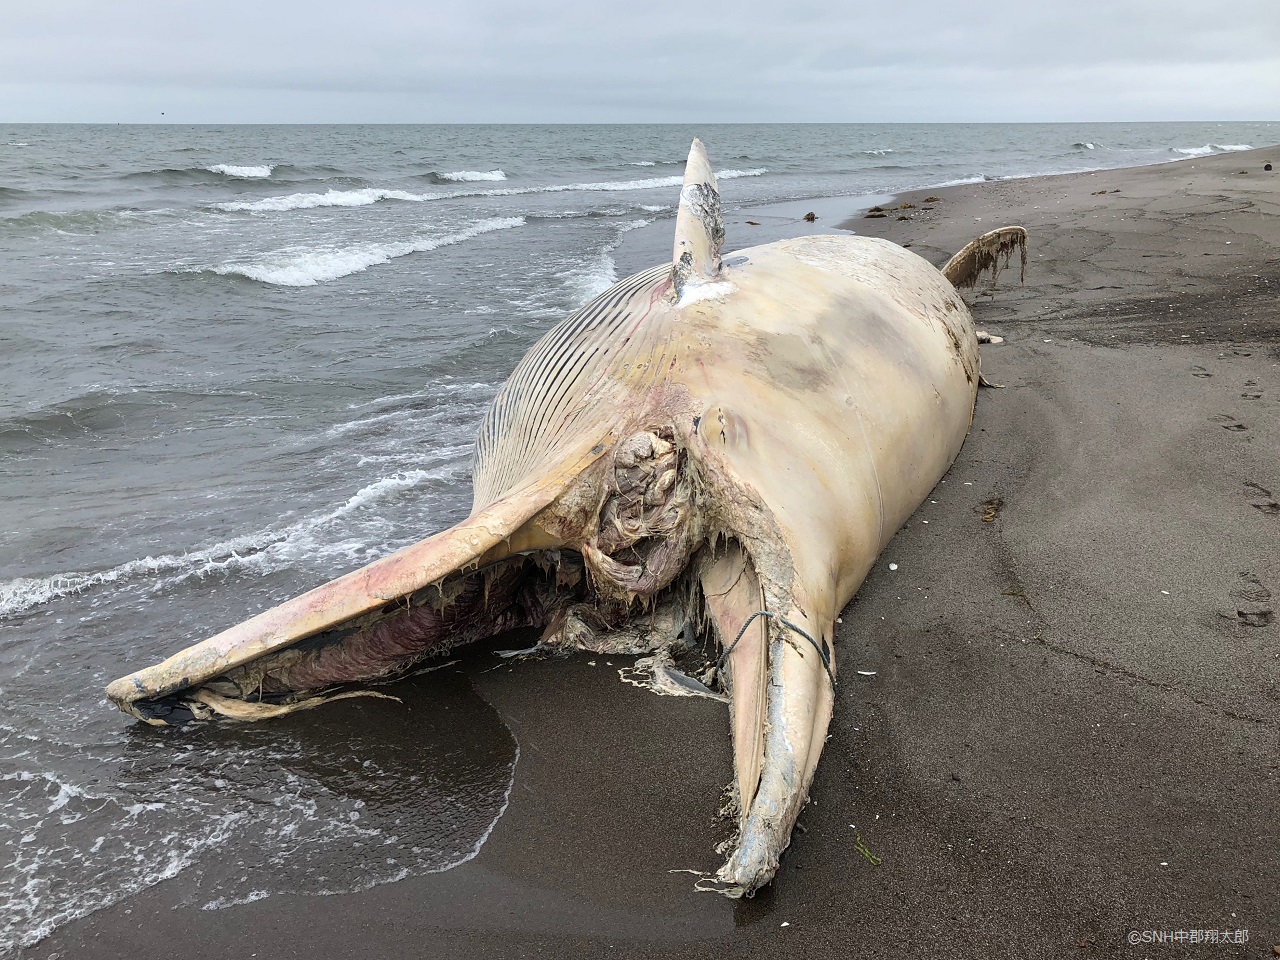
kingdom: Animalia
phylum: Chordata
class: Mammalia
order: Cetacea
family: Balaenopteridae
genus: Balaenoptera
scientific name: Balaenoptera acutorostrata
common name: Minke whale
